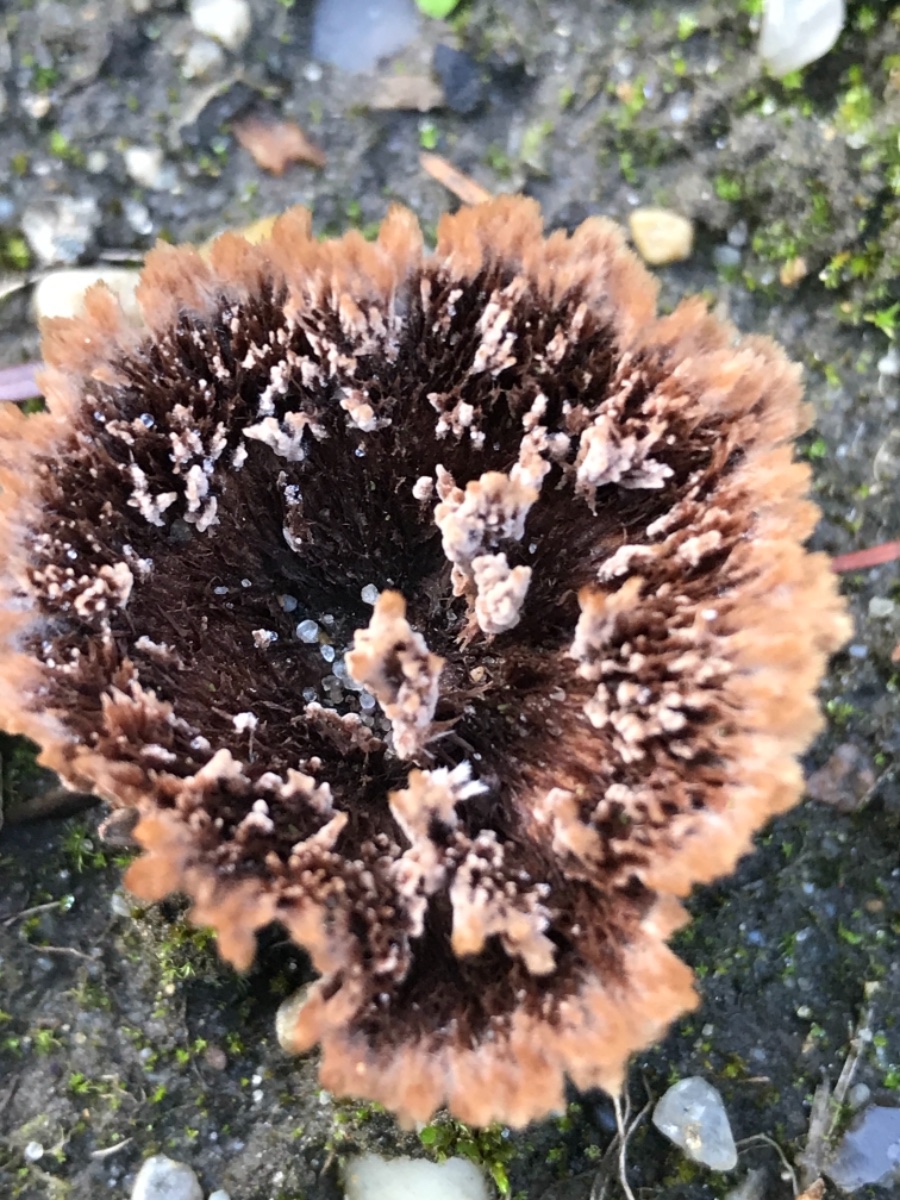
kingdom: Fungi
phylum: Basidiomycota
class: Agaricomycetes
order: Thelephorales
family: Thelephoraceae
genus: Thelephora
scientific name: Thelephora terrestris
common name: fliget frynsesvamp
